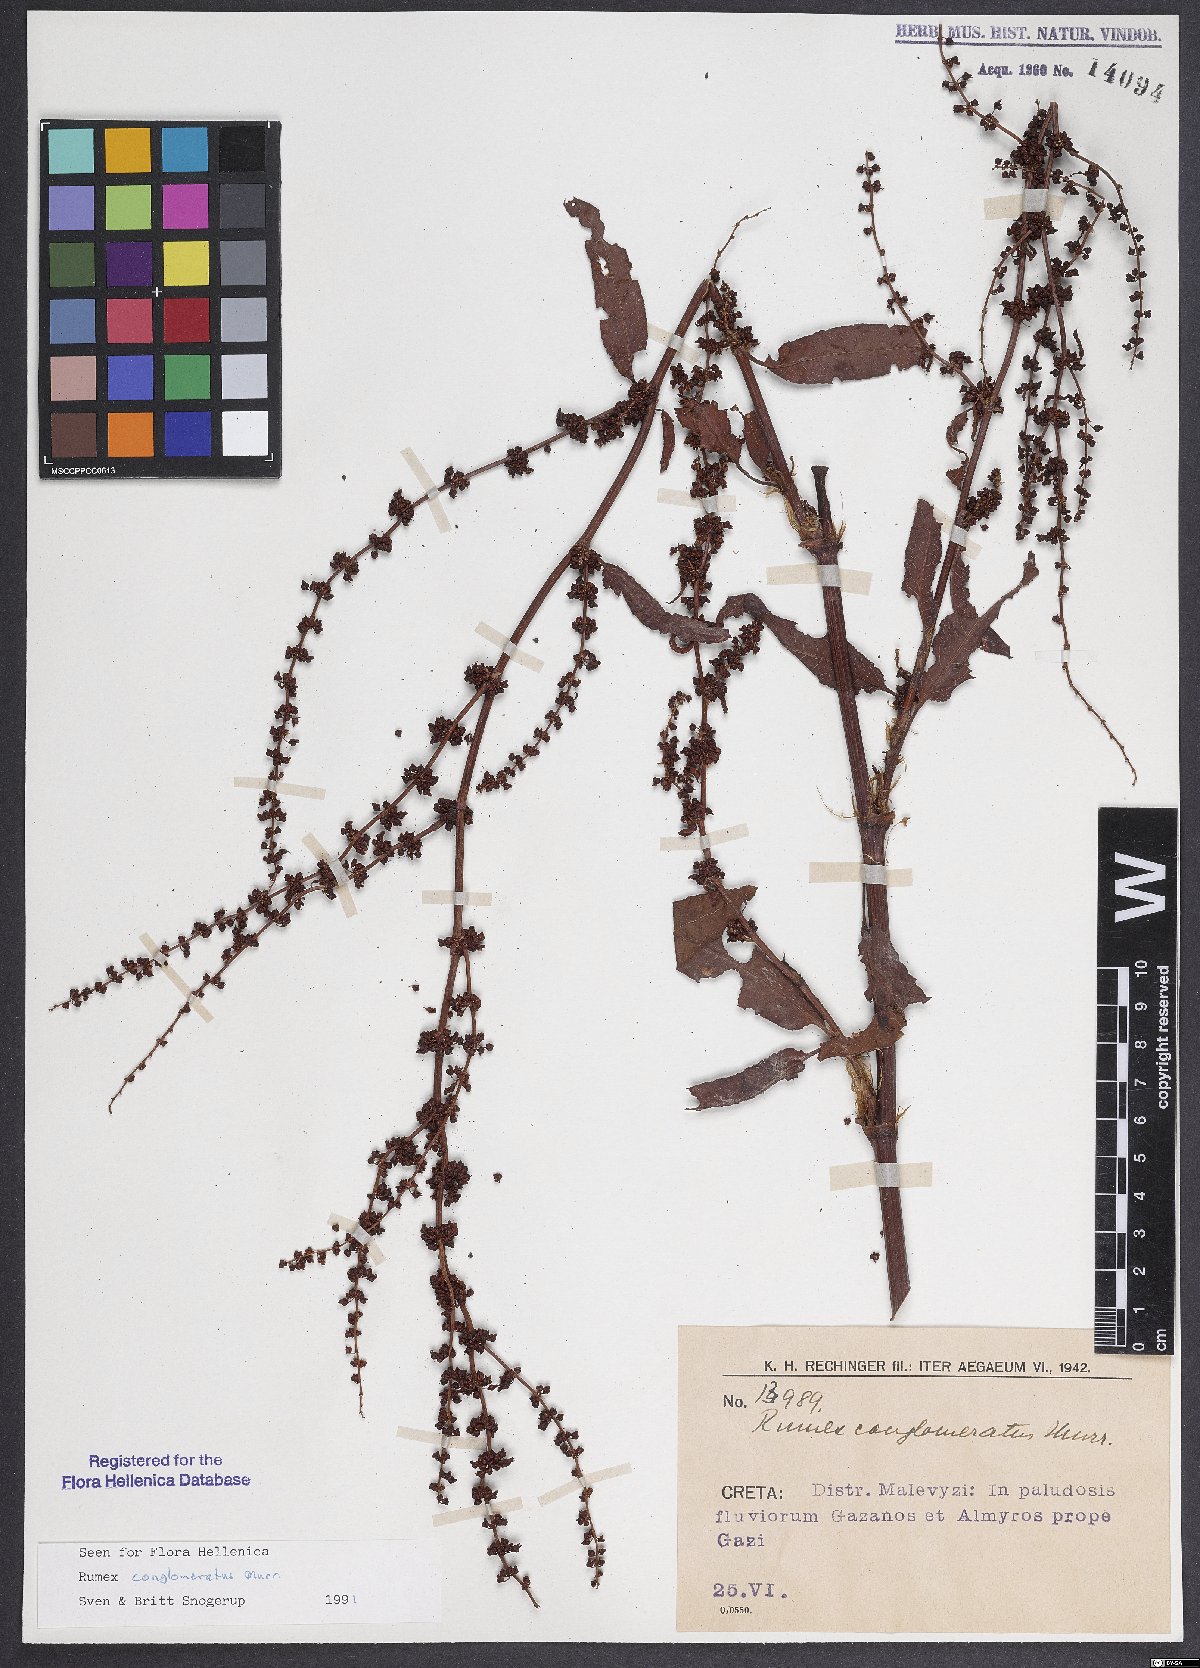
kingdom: Plantae
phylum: Tracheophyta
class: Magnoliopsida
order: Caryophyllales
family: Polygonaceae
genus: Rumex
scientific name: Rumex conglomeratus
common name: Clustered dock
